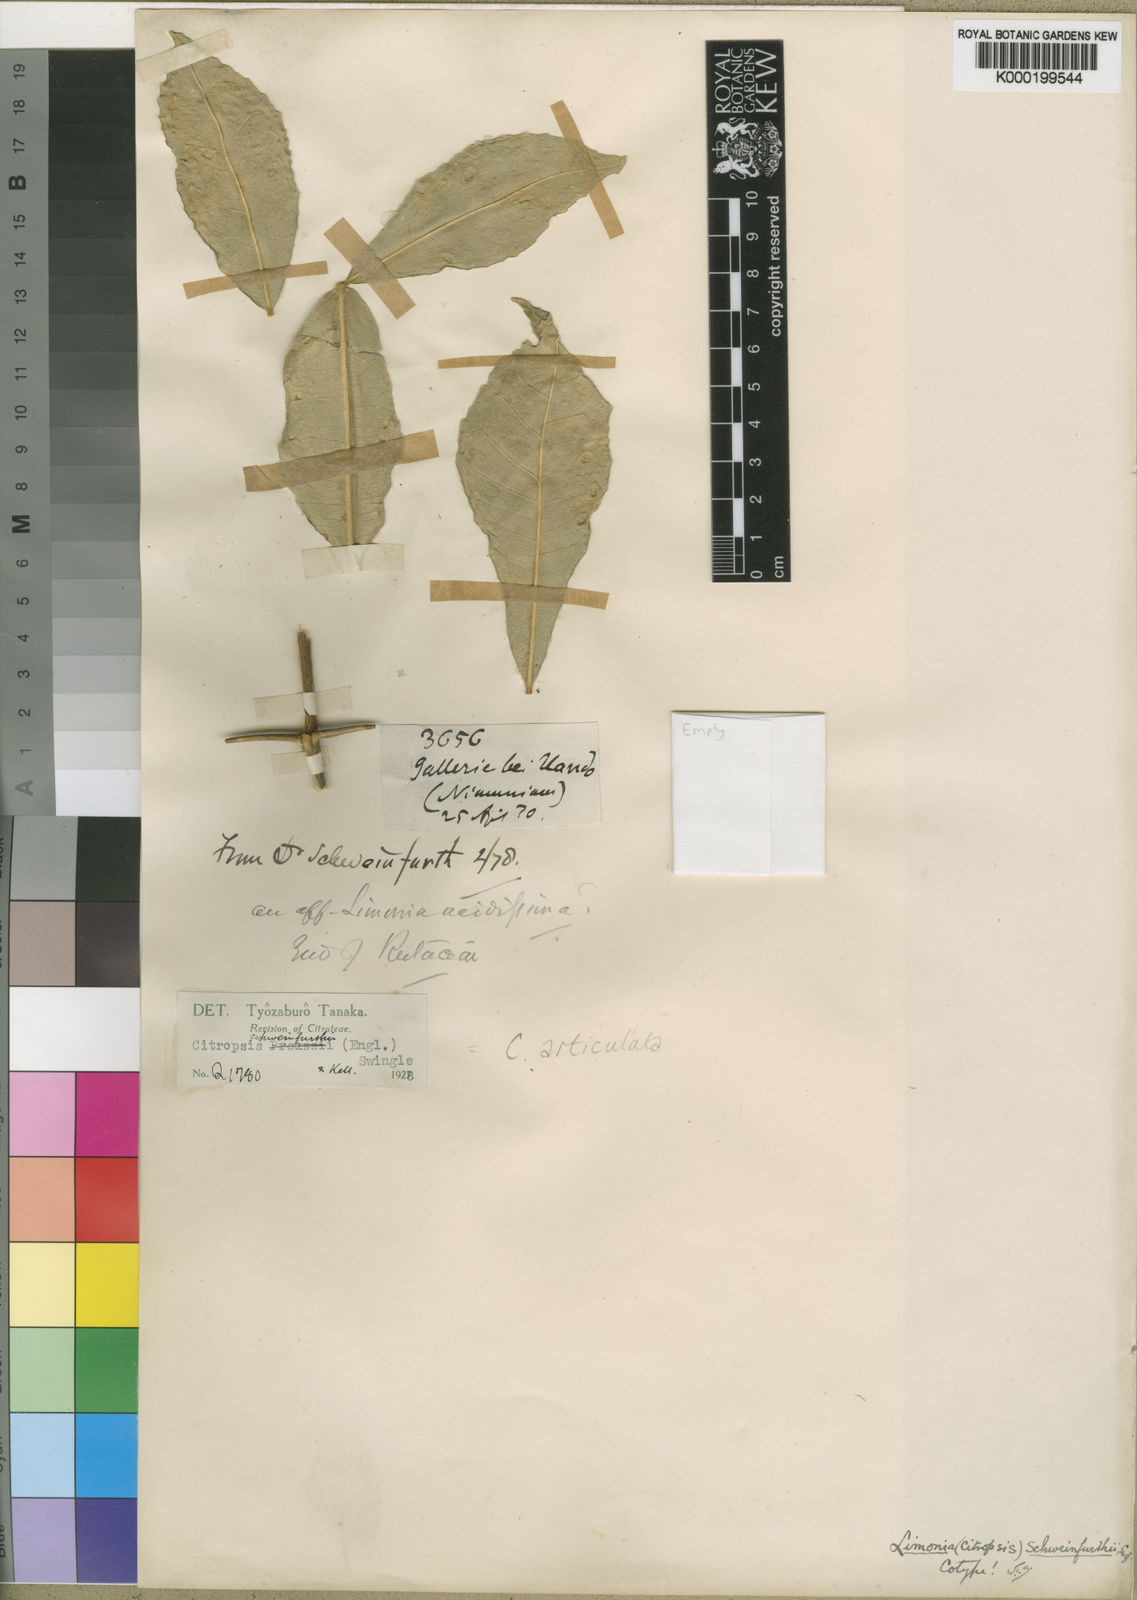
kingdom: Plantae
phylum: Tracheophyta
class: Magnoliopsida
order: Sapindales
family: Rutaceae
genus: Citropsis
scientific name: Citropsis articulata
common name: West african cherry-orange
